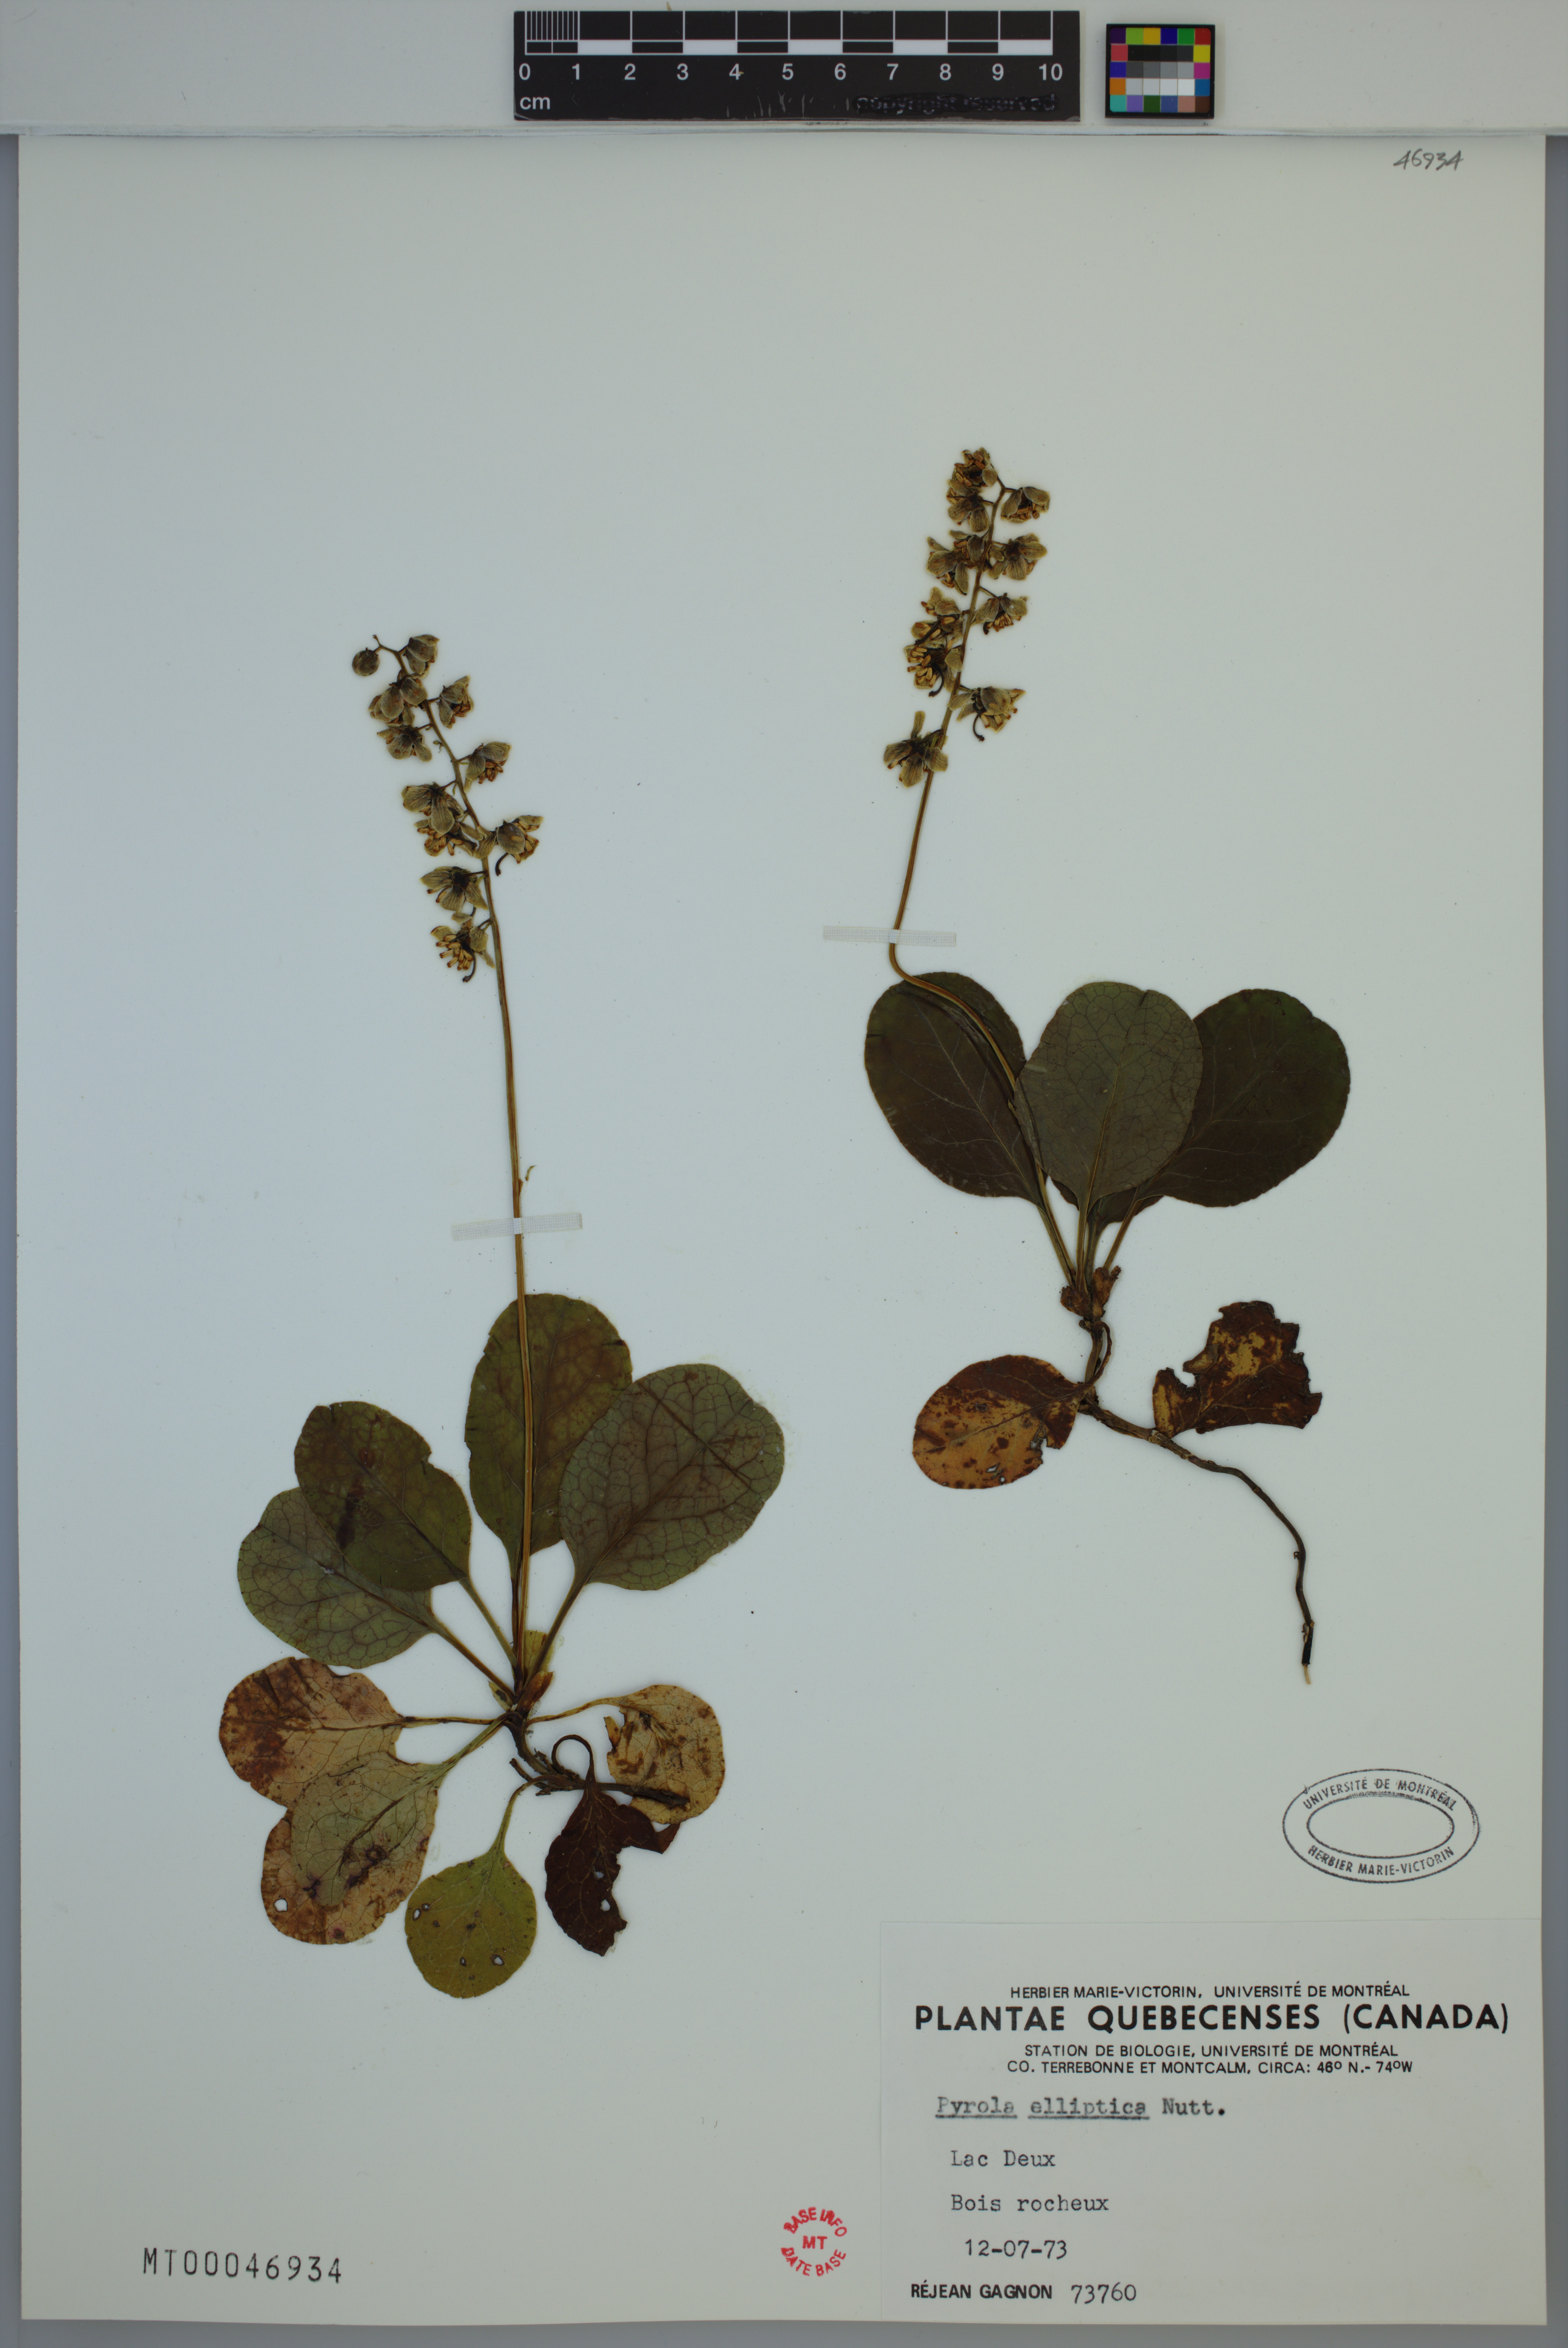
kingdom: Plantae
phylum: Tracheophyta
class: Magnoliopsida
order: Ericales
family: Ericaceae
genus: Pyrola
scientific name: Pyrola elliptica
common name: Shinleaf
